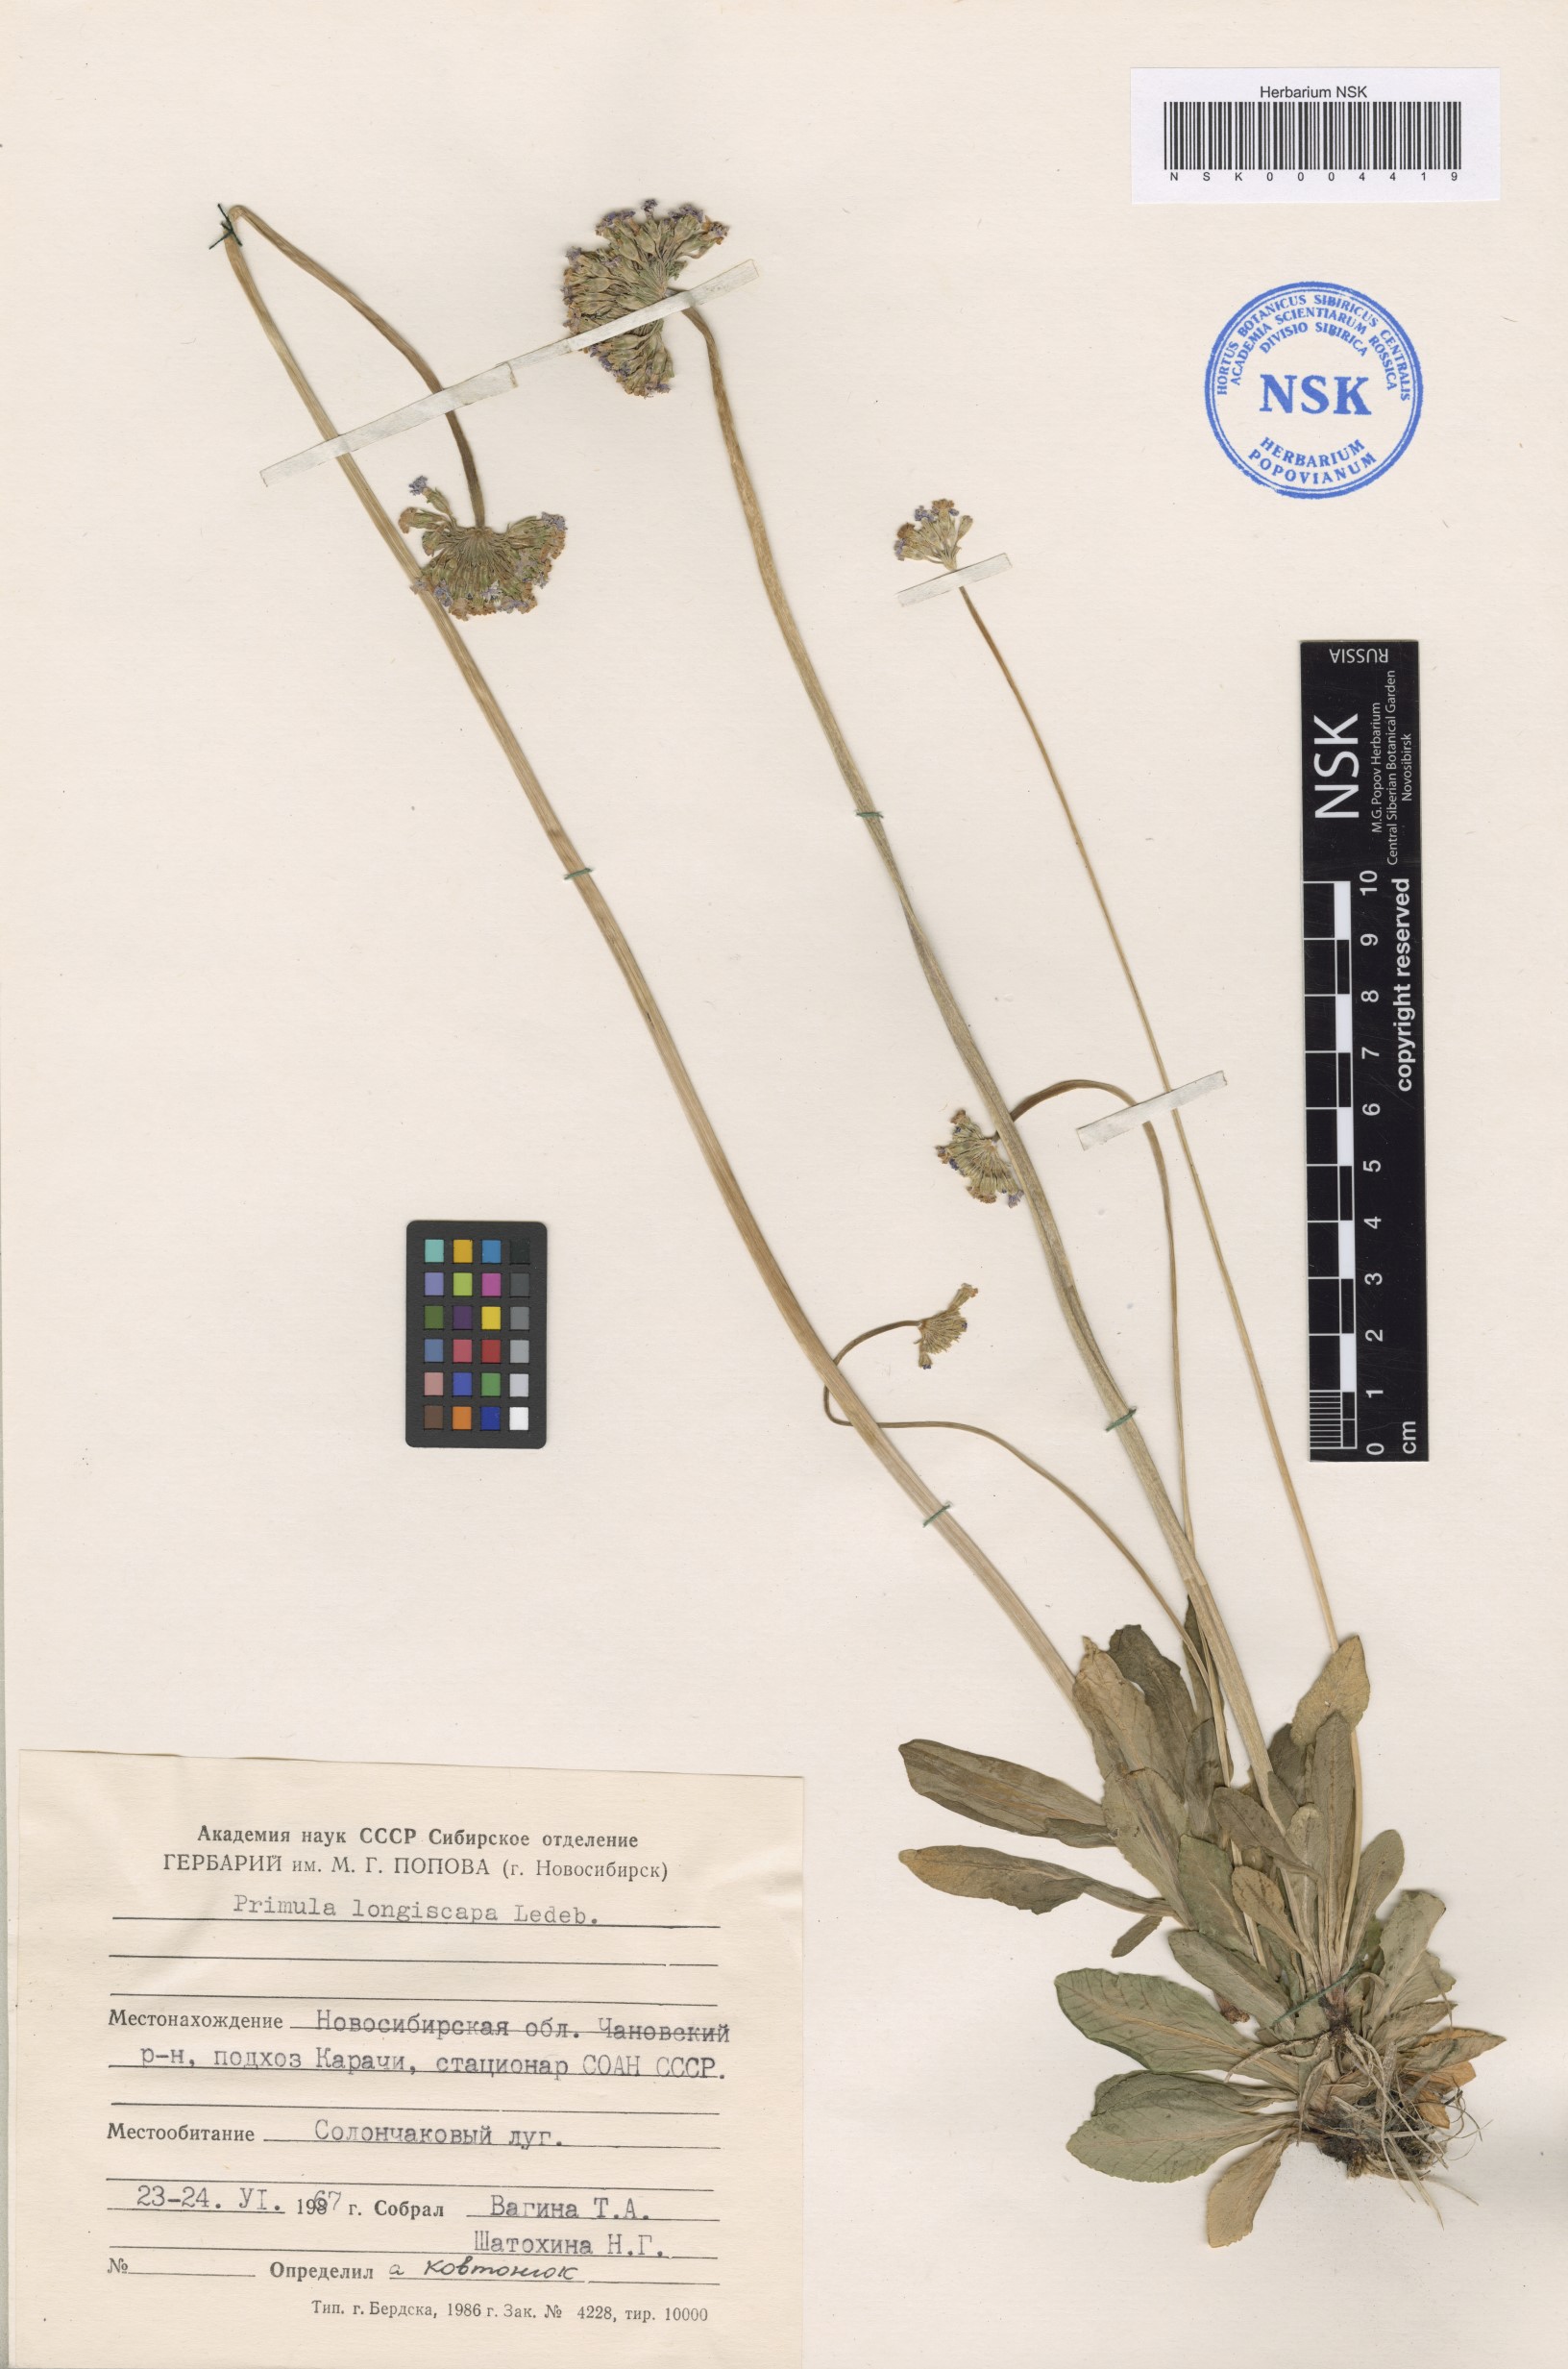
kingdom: Plantae
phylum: Tracheophyta
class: Magnoliopsida
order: Ericales
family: Primulaceae
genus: Primula
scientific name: Primula longiscapa
